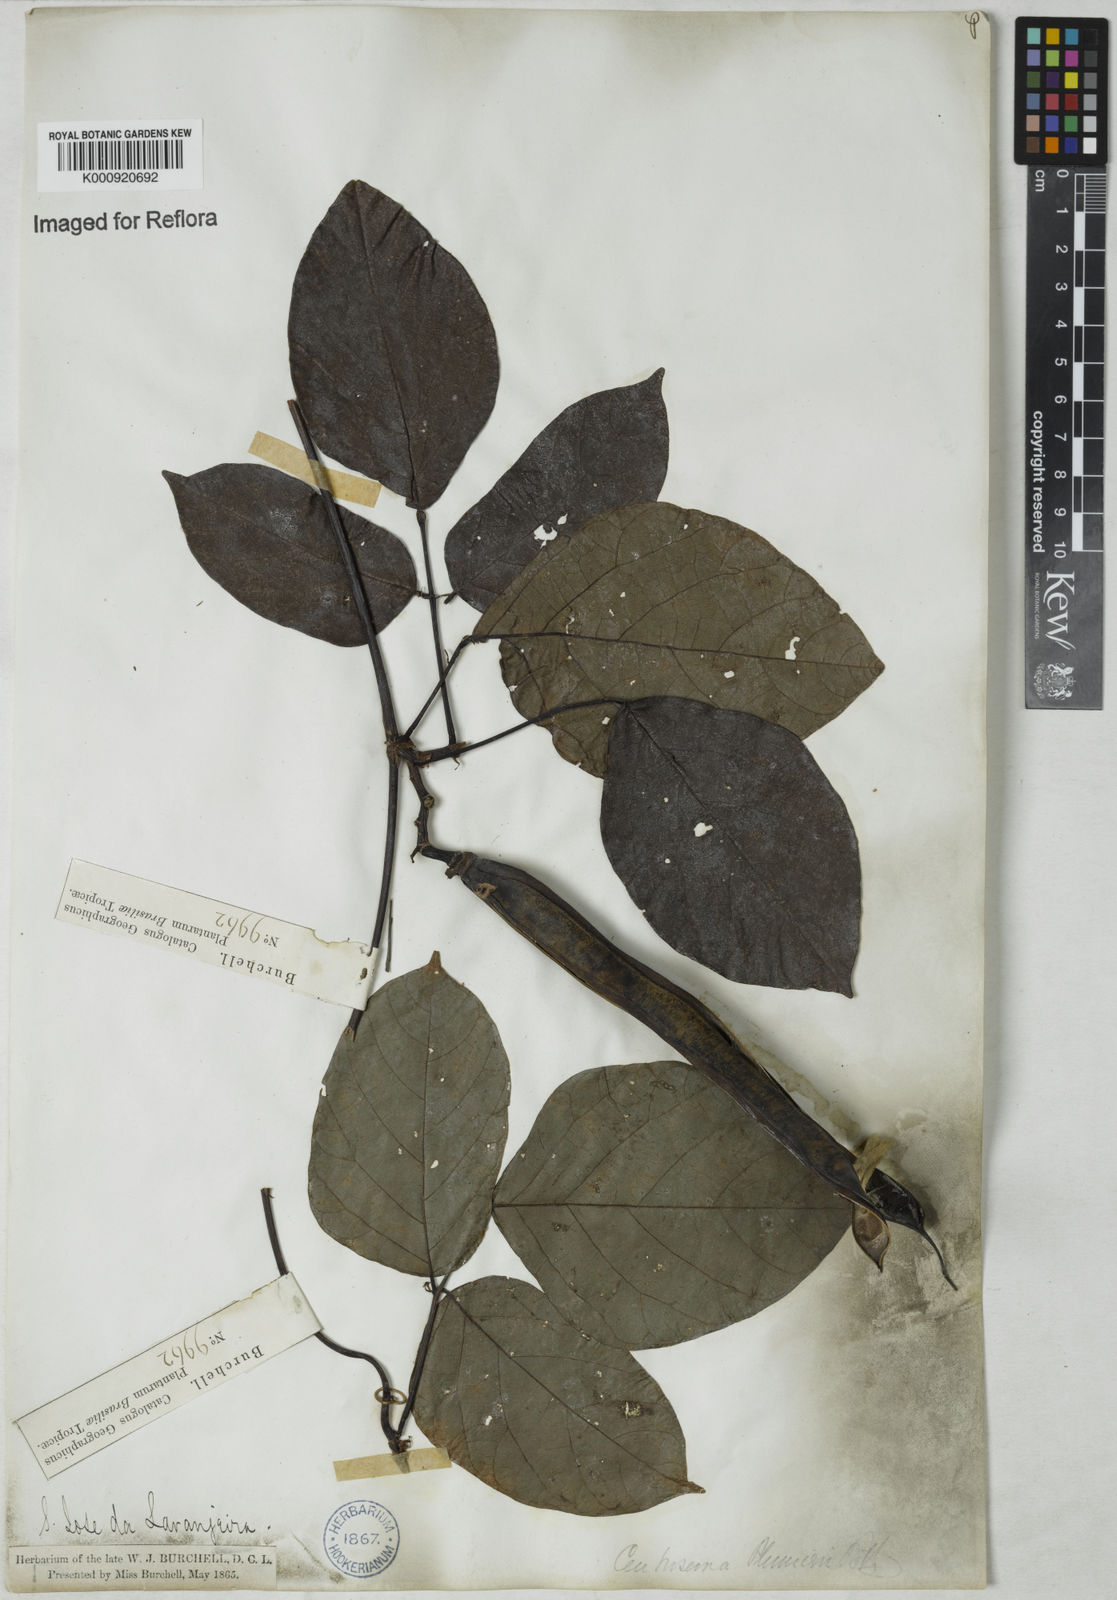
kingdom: Plantae
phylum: Tracheophyta
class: Magnoliopsida
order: Fabales
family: Fabaceae
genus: Centrosema
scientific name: Centrosema plumieri
